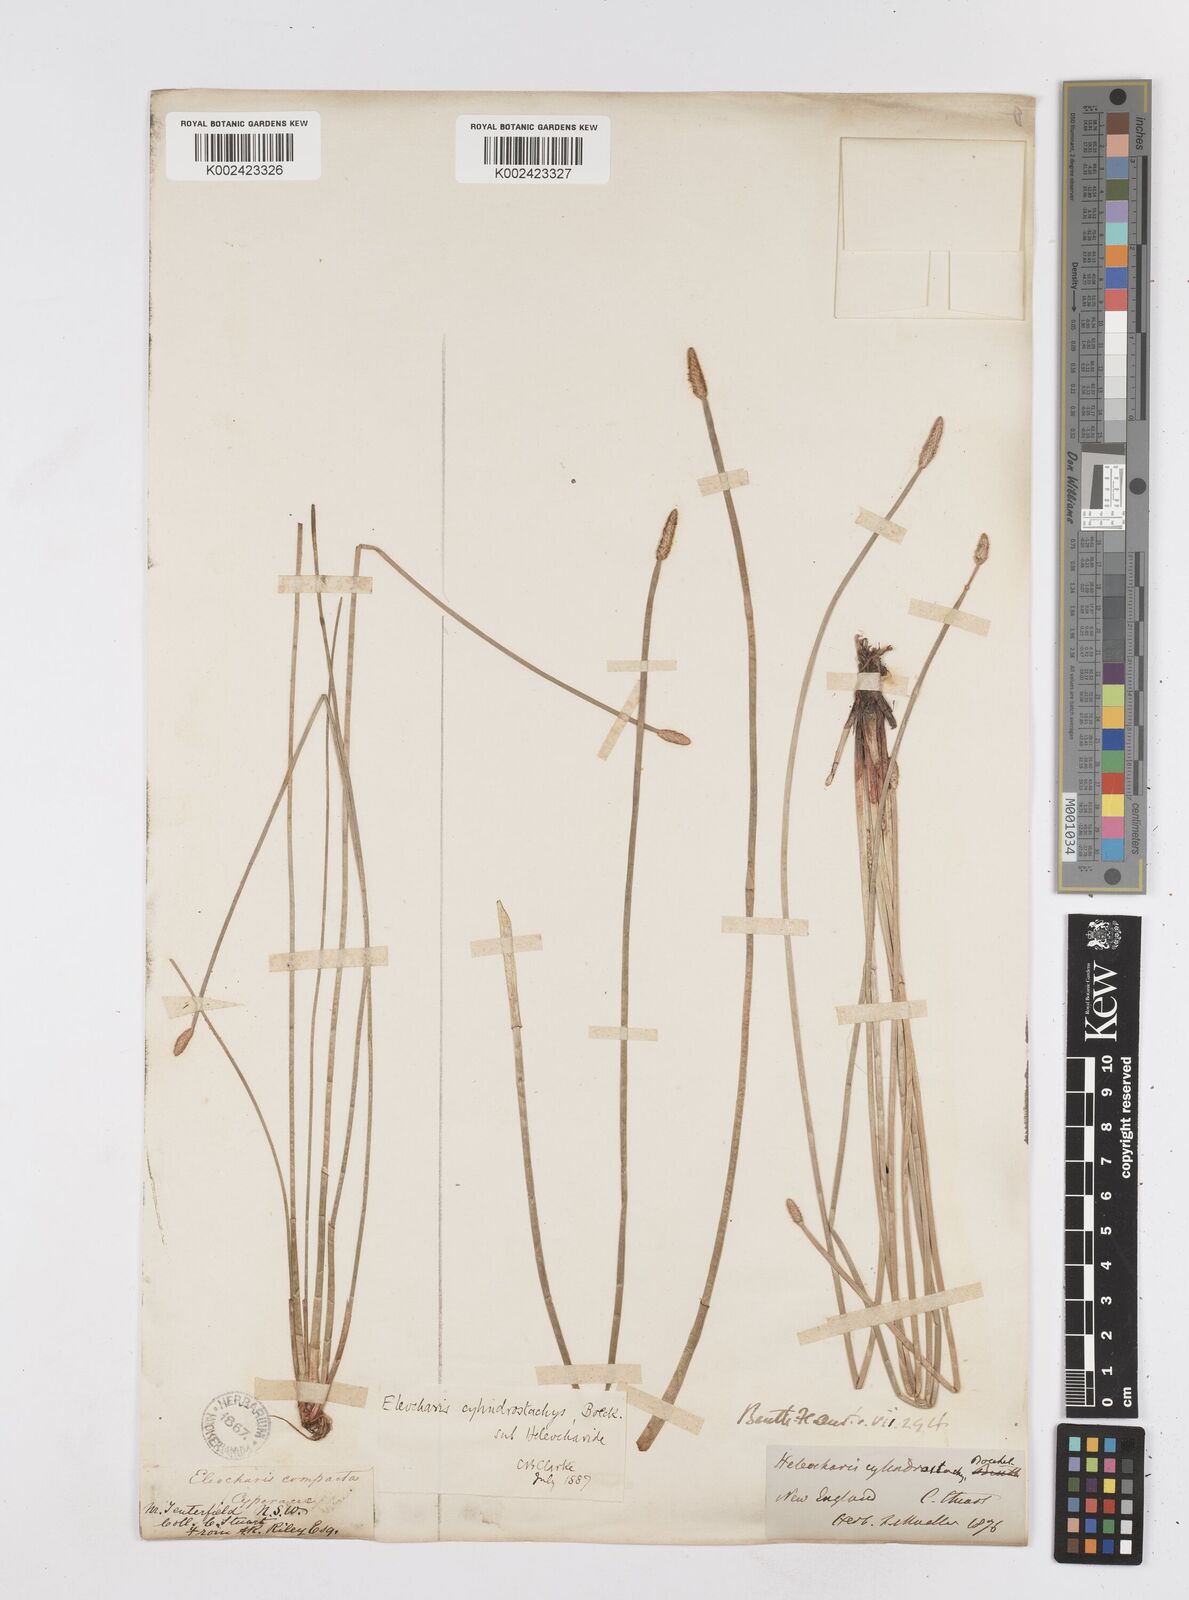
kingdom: Plantae
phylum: Tracheophyta
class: Liliopsida
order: Poales
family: Cyperaceae
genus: Eleocharis
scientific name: Eleocharis cylindrostachys
